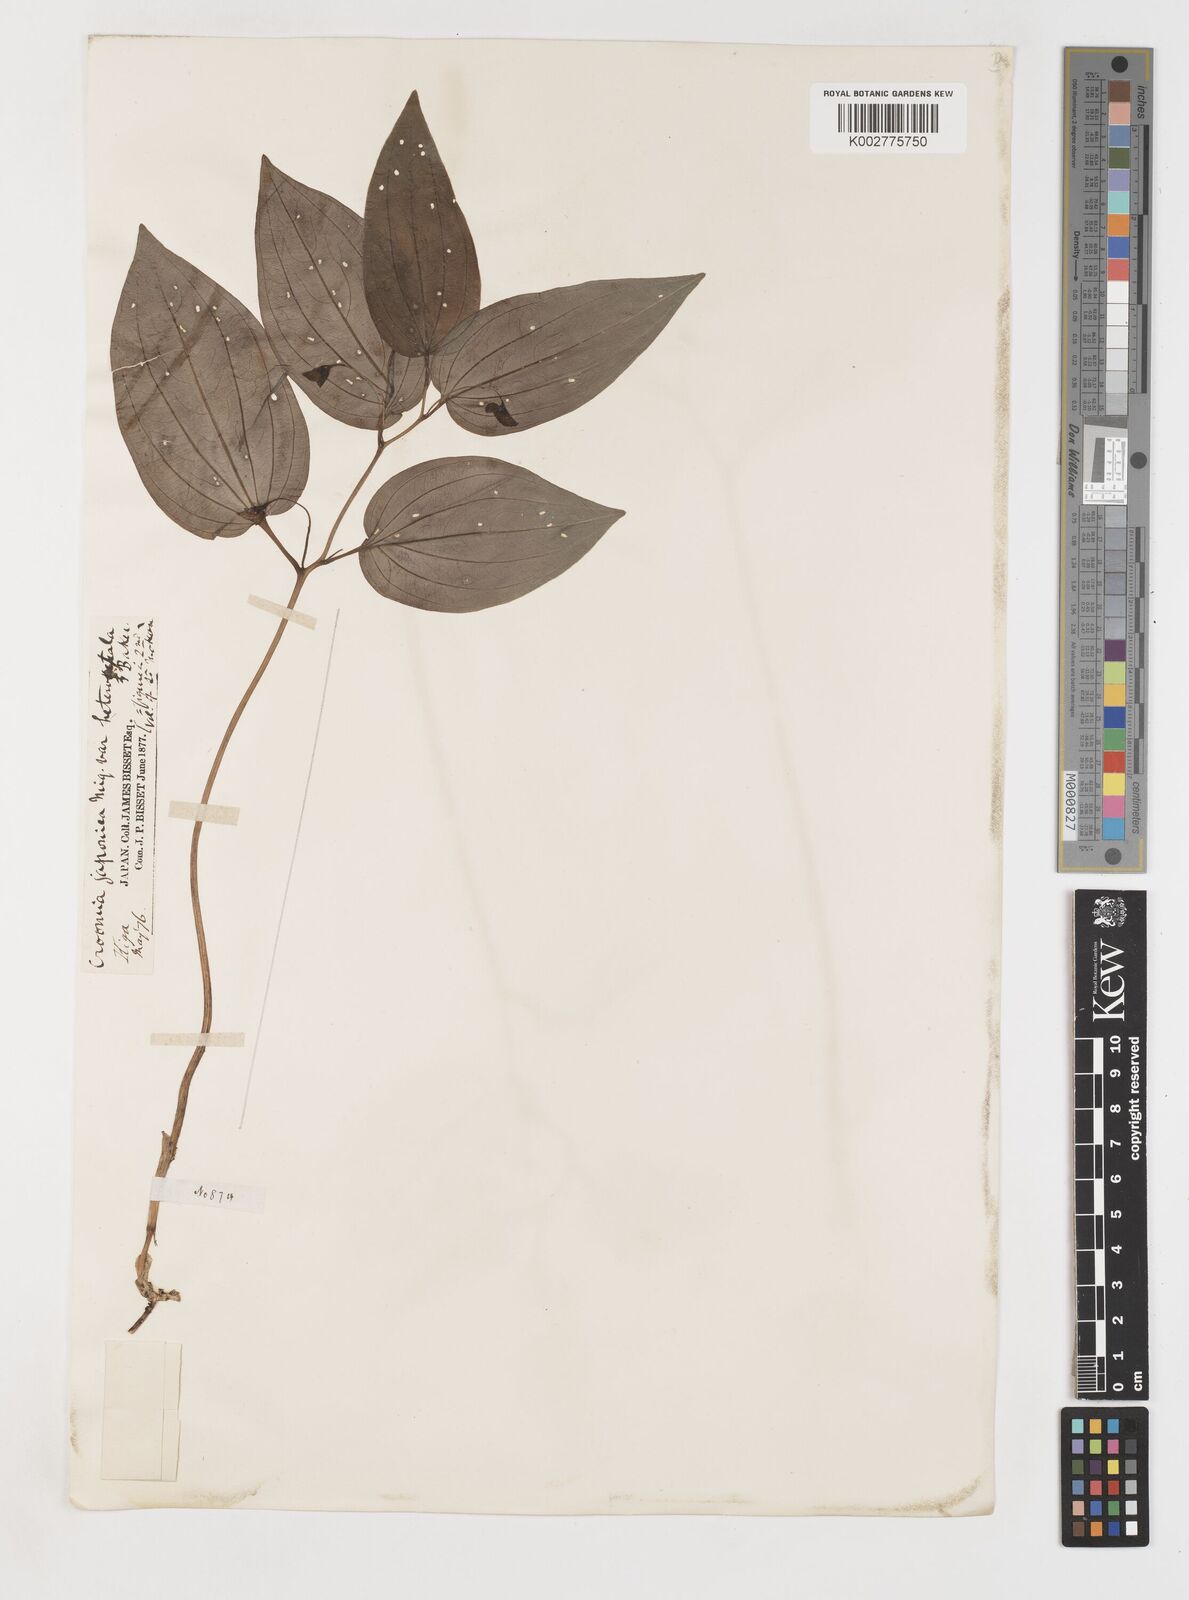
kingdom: Plantae
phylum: Tracheophyta
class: Liliopsida
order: Pandanales
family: Stemonaceae
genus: Croomia
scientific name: Croomia japonica
